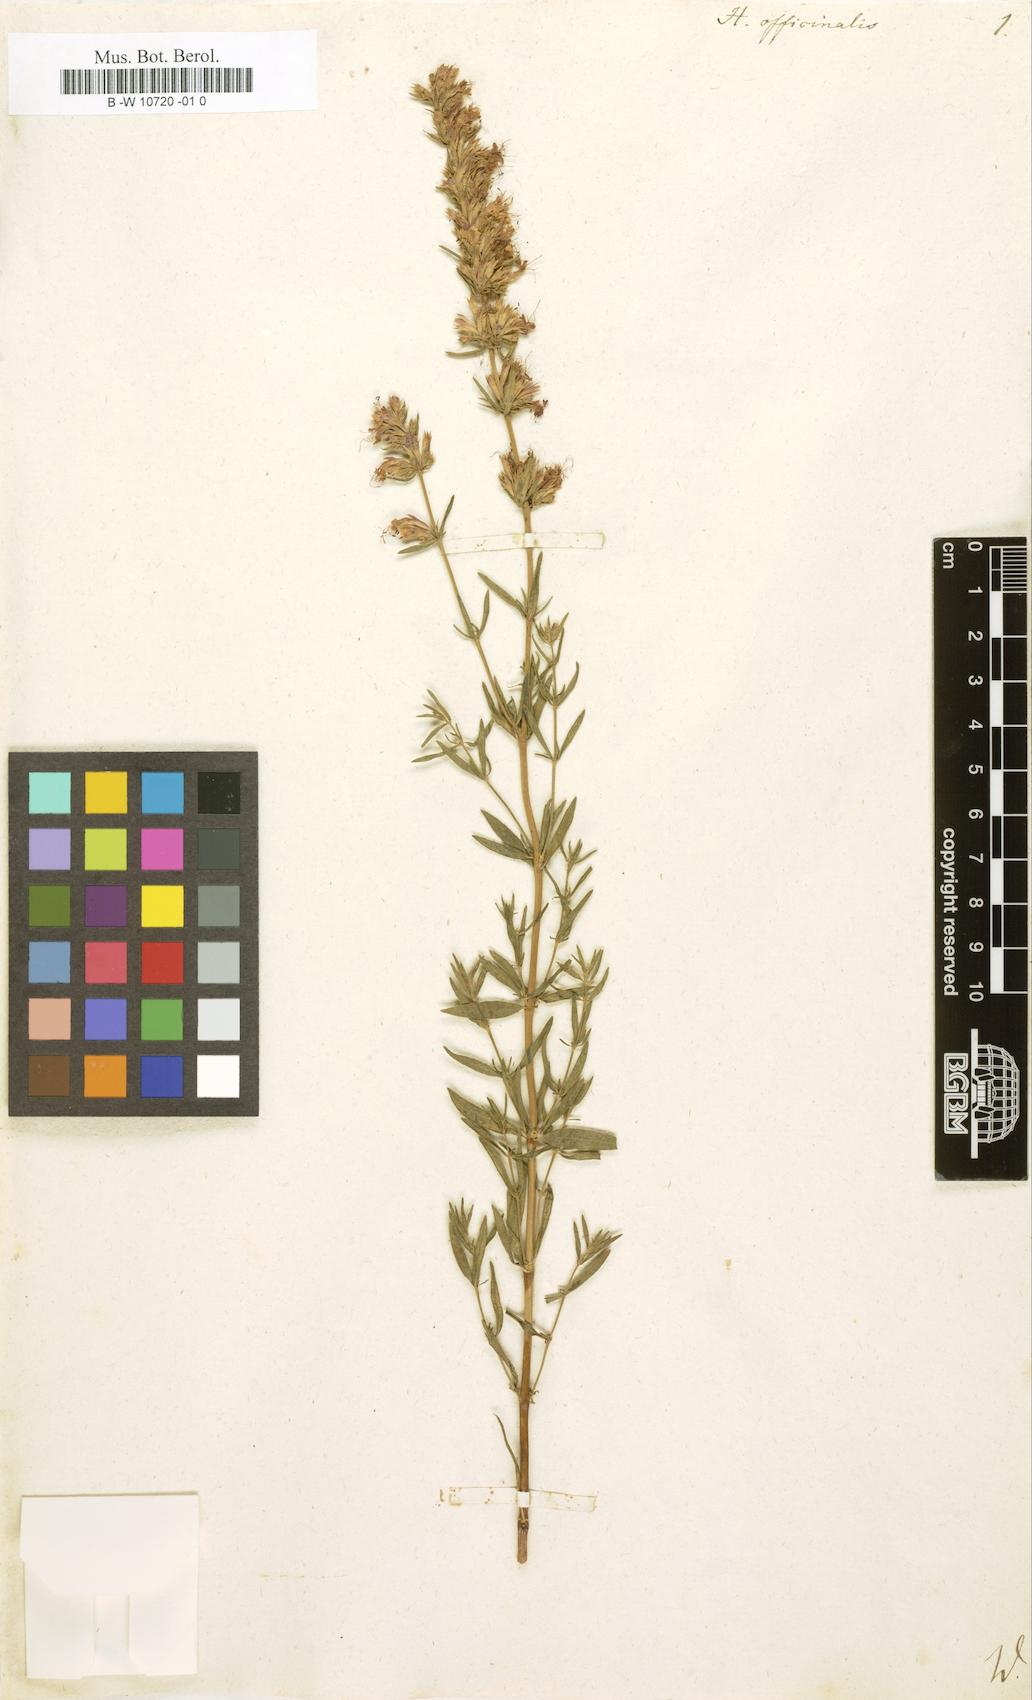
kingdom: Plantae
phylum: Tracheophyta
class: Magnoliopsida
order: Lamiales
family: Lamiaceae
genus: Hyssopus
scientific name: Hyssopus officinalis
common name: Hyssop
